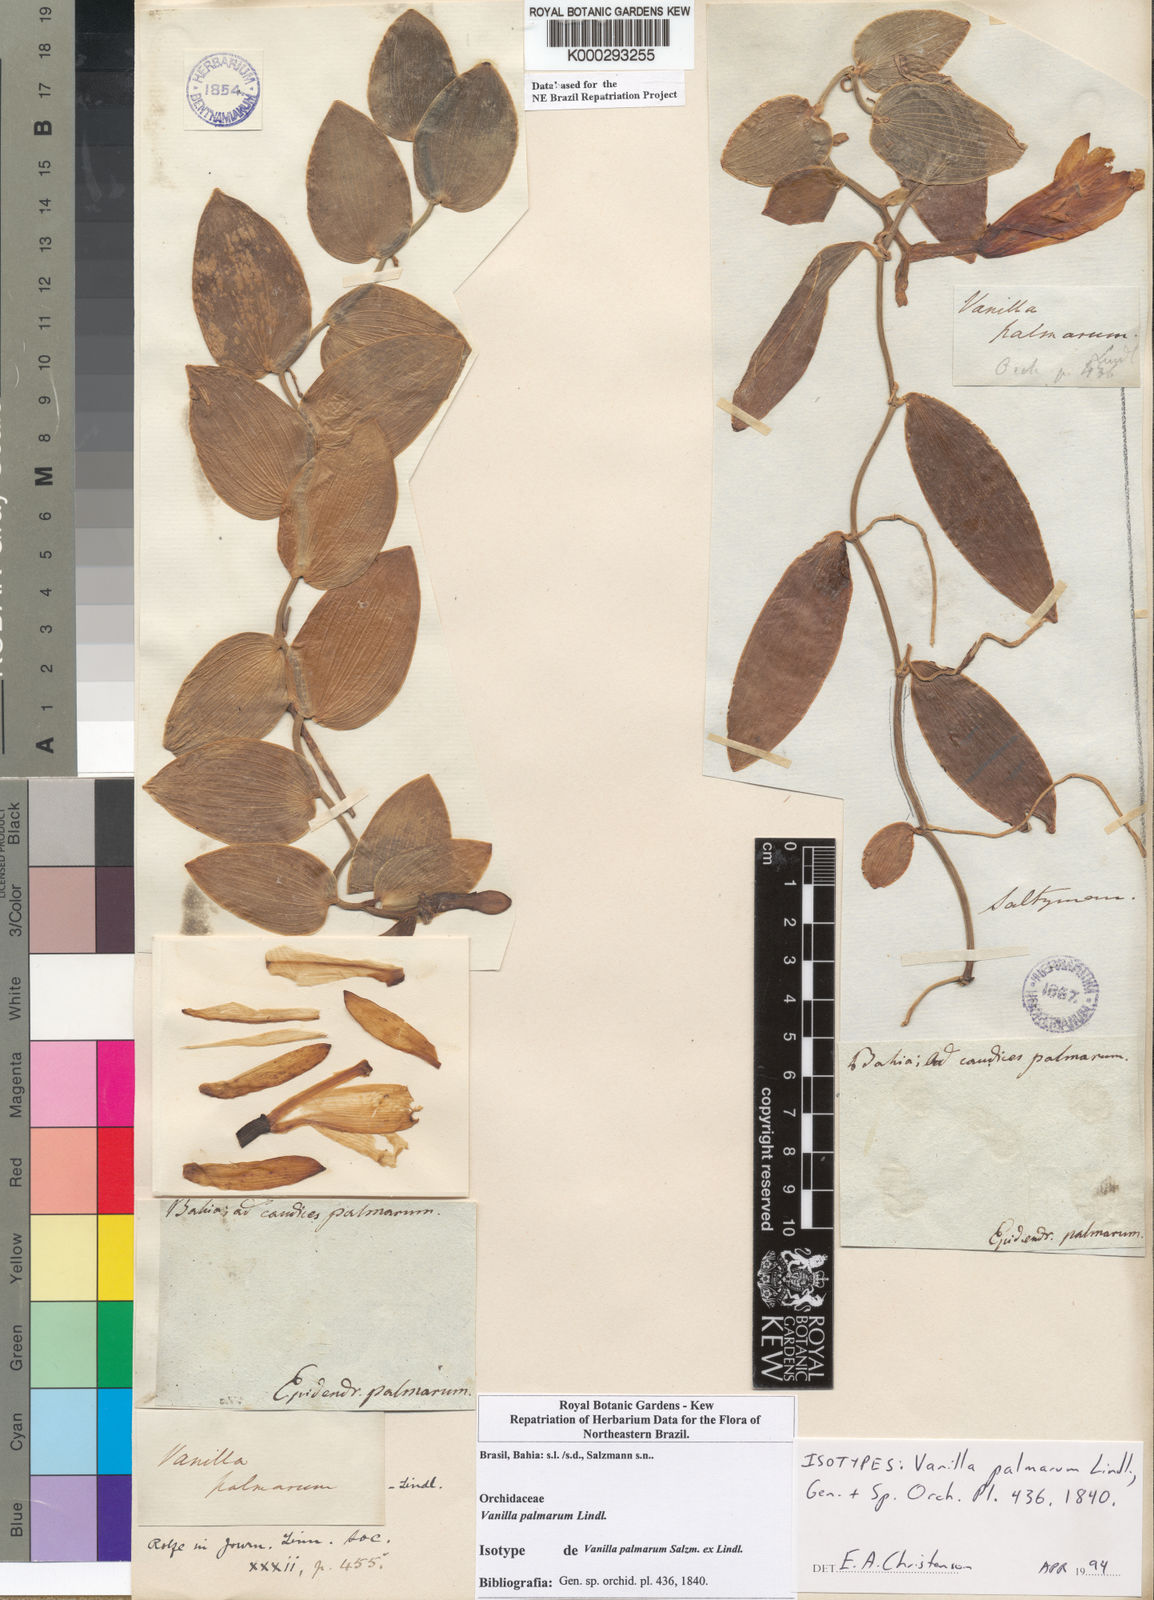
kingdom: Plantae
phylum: Tracheophyta
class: Liliopsida
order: Asparagales
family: Orchidaceae
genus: Vanilla
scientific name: Vanilla palmarum
